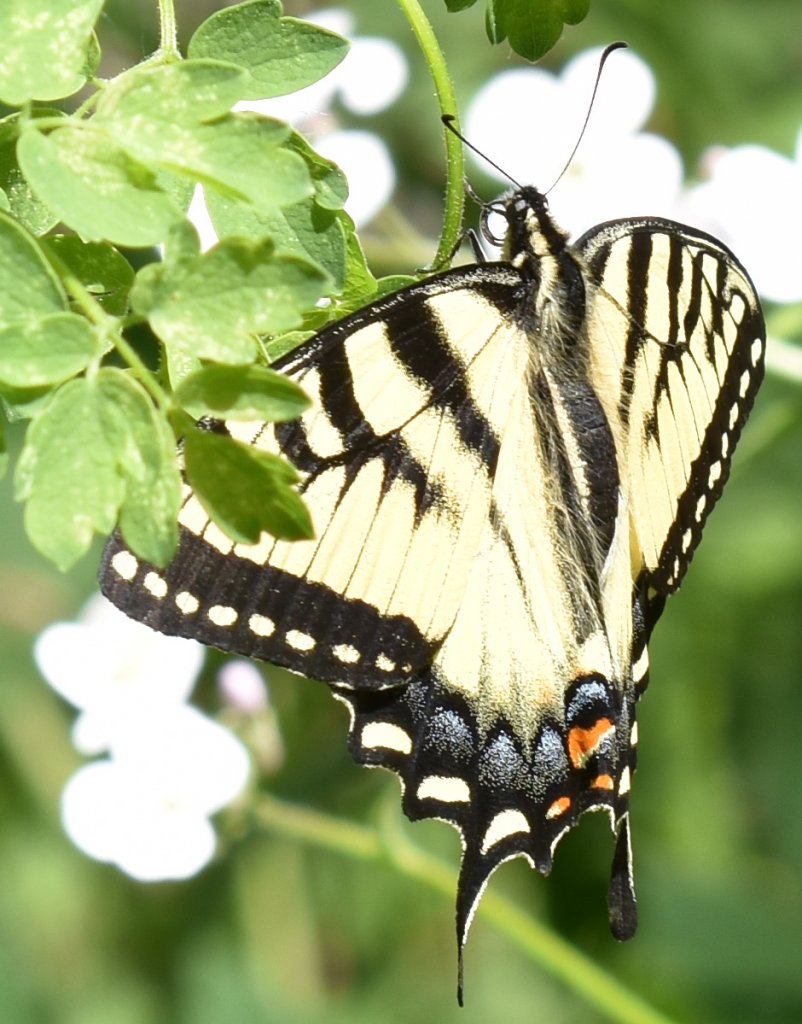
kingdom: Animalia
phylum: Arthropoda
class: Insecta
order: Lepidoptera
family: Papilionidae
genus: Pterourus
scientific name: Pterourus glaucus
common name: Eastern Tiger Swallowtail
